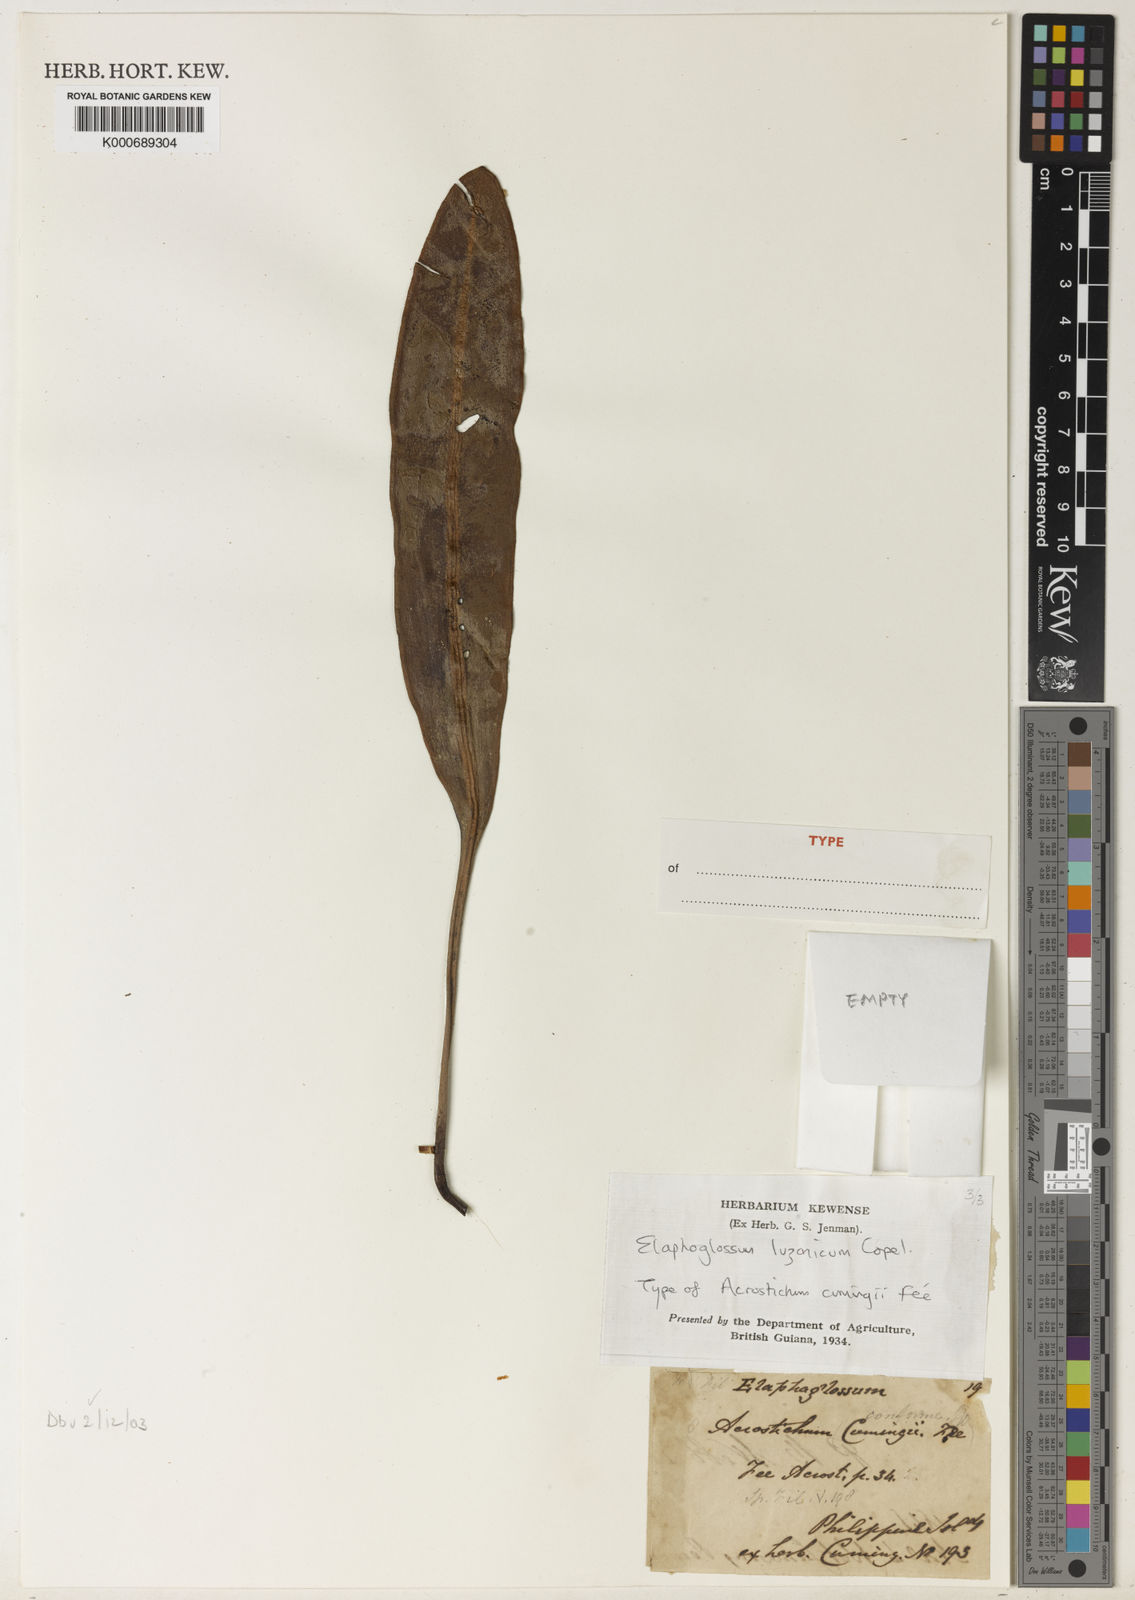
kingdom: Plantae
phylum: Tracheophyta
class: Polypodiopsida
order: Polypodiales
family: Dryopteridaceae
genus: Elaphoglossum
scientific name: Elaphoglossum luzonicum
